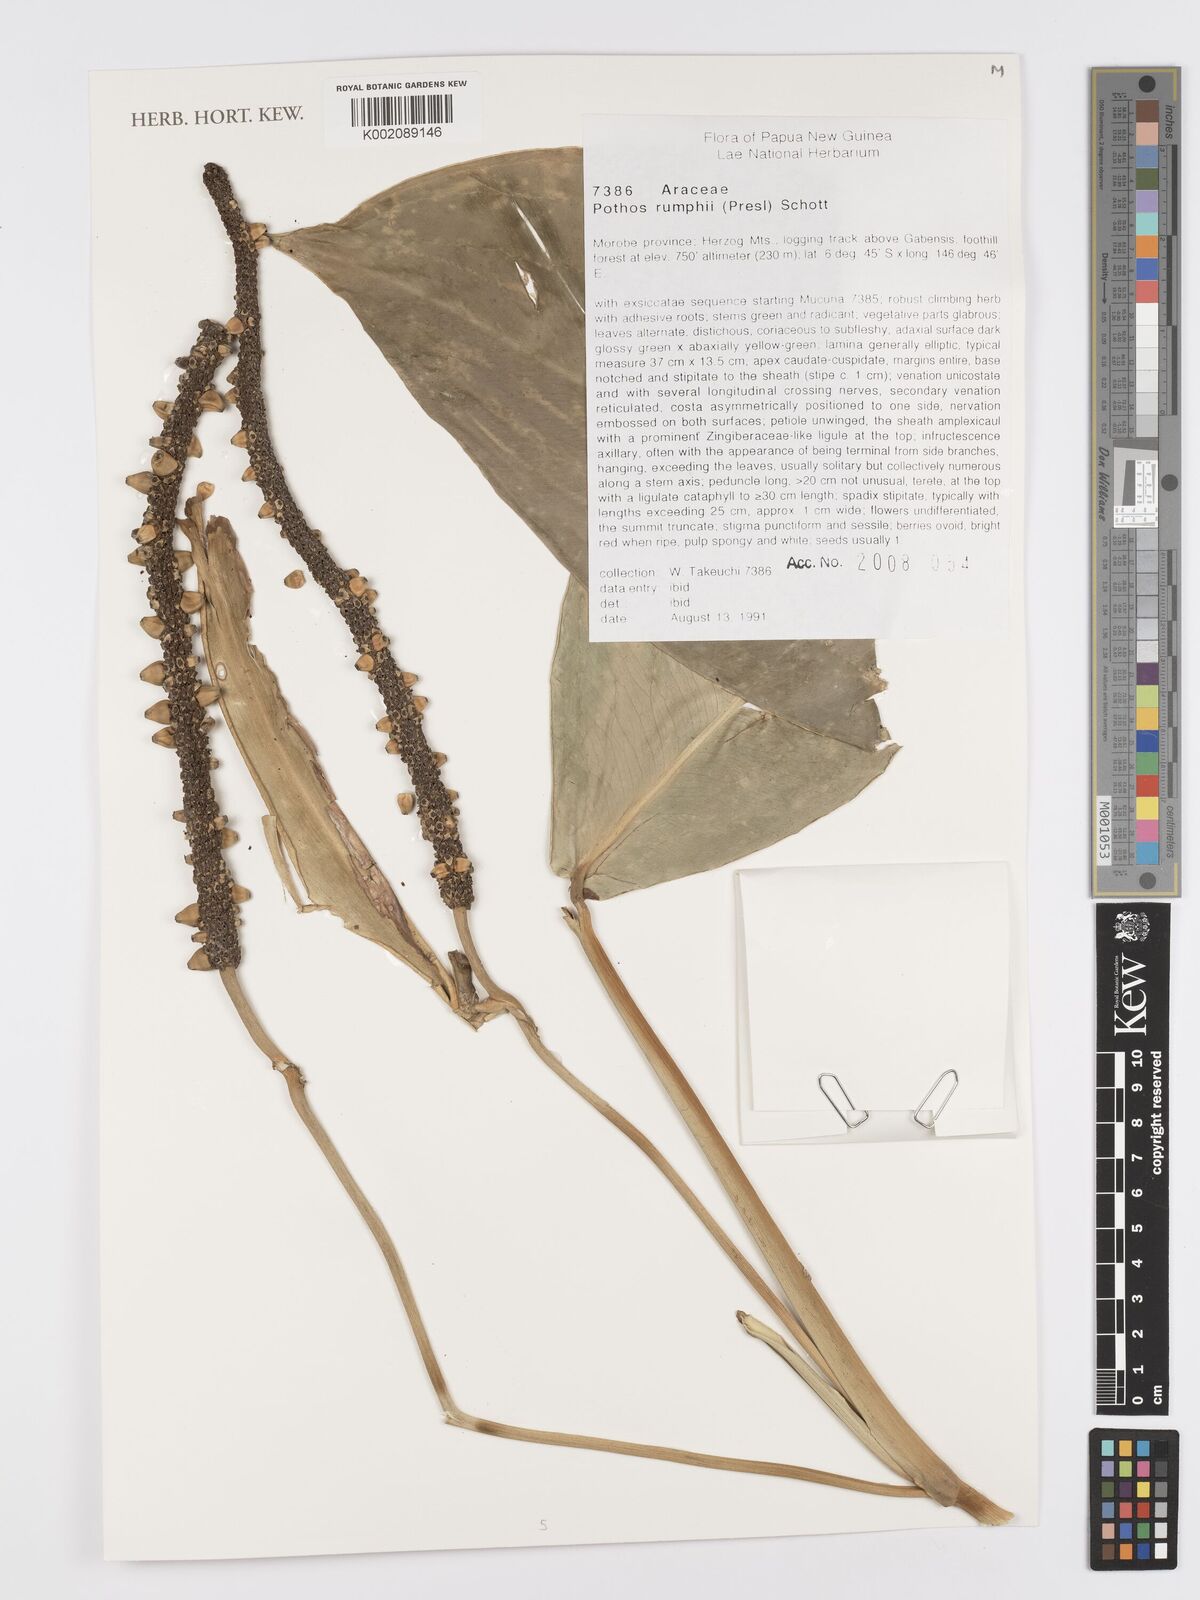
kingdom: Plantae
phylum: Tracheophyta
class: Liliopsida
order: Alismatales
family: Araceae
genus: Pothos
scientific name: Pothos tener
